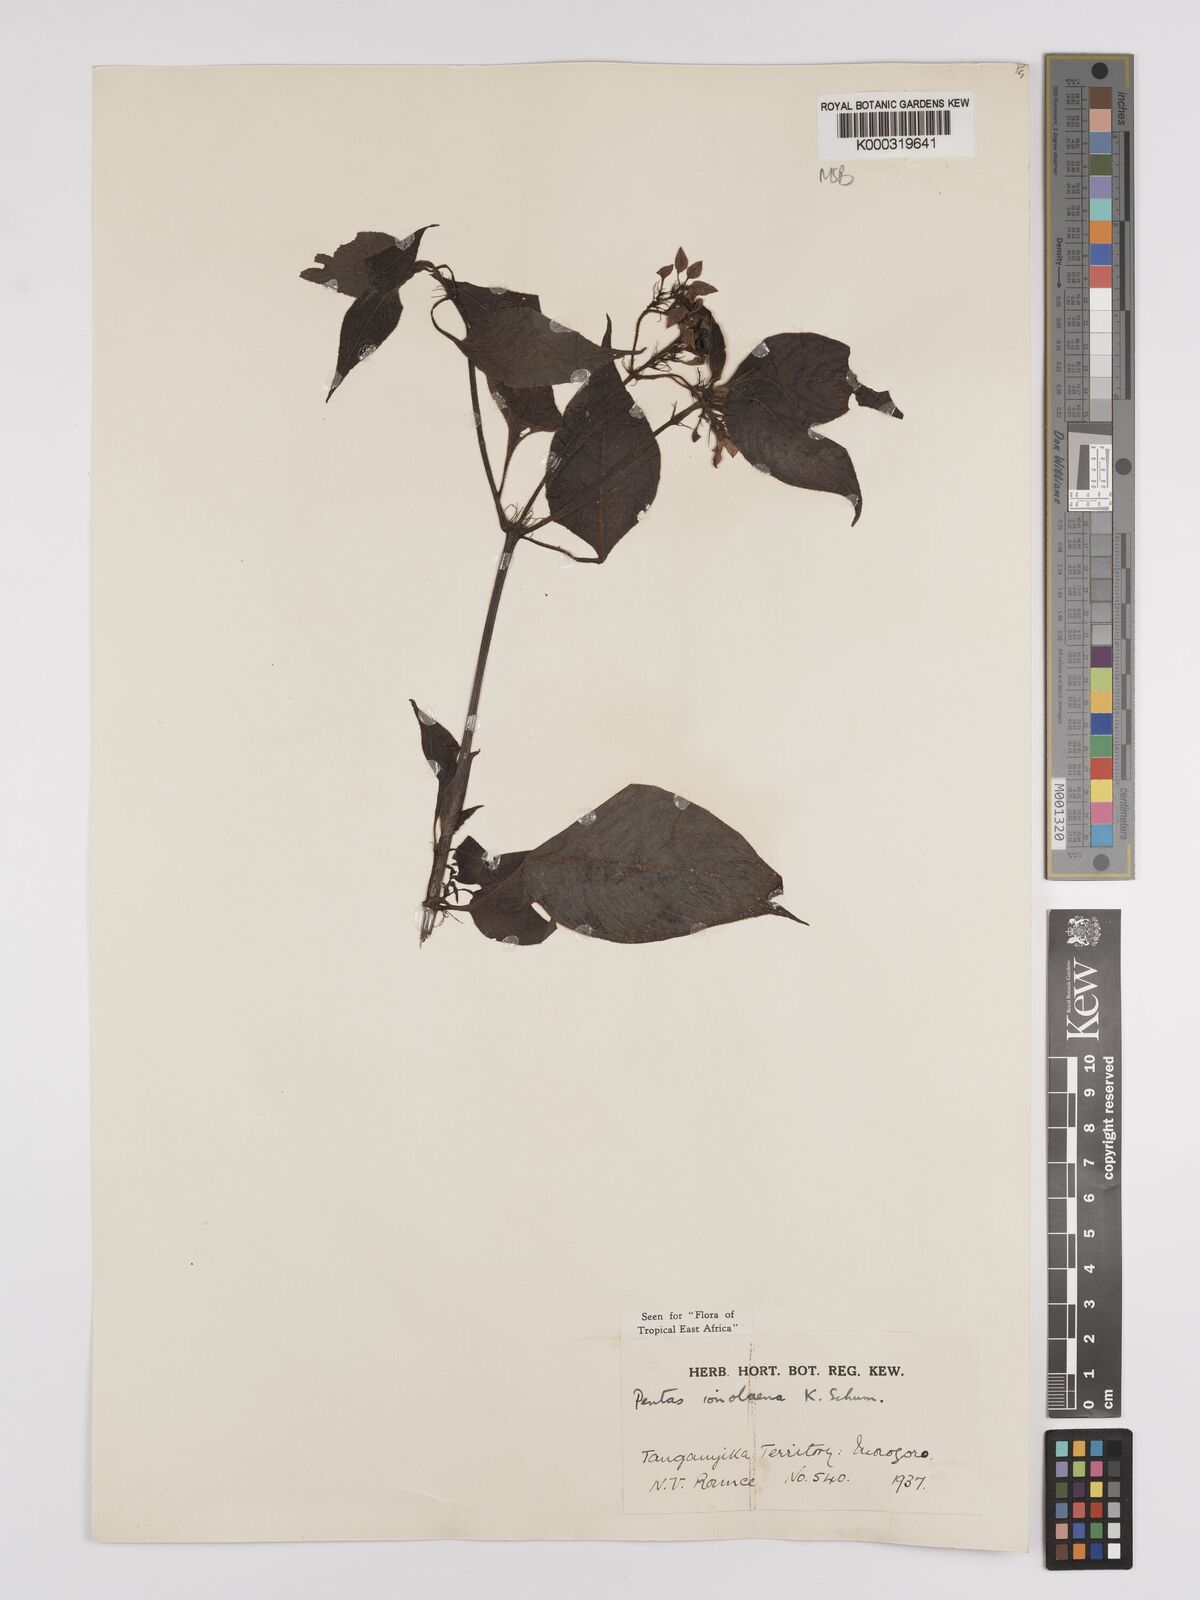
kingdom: Plantae
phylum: Tracheophyta
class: Magnoliopsida
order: Gentianales
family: Rubiaceae
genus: Phyllopentas
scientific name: Phyllopentas ionolaena
